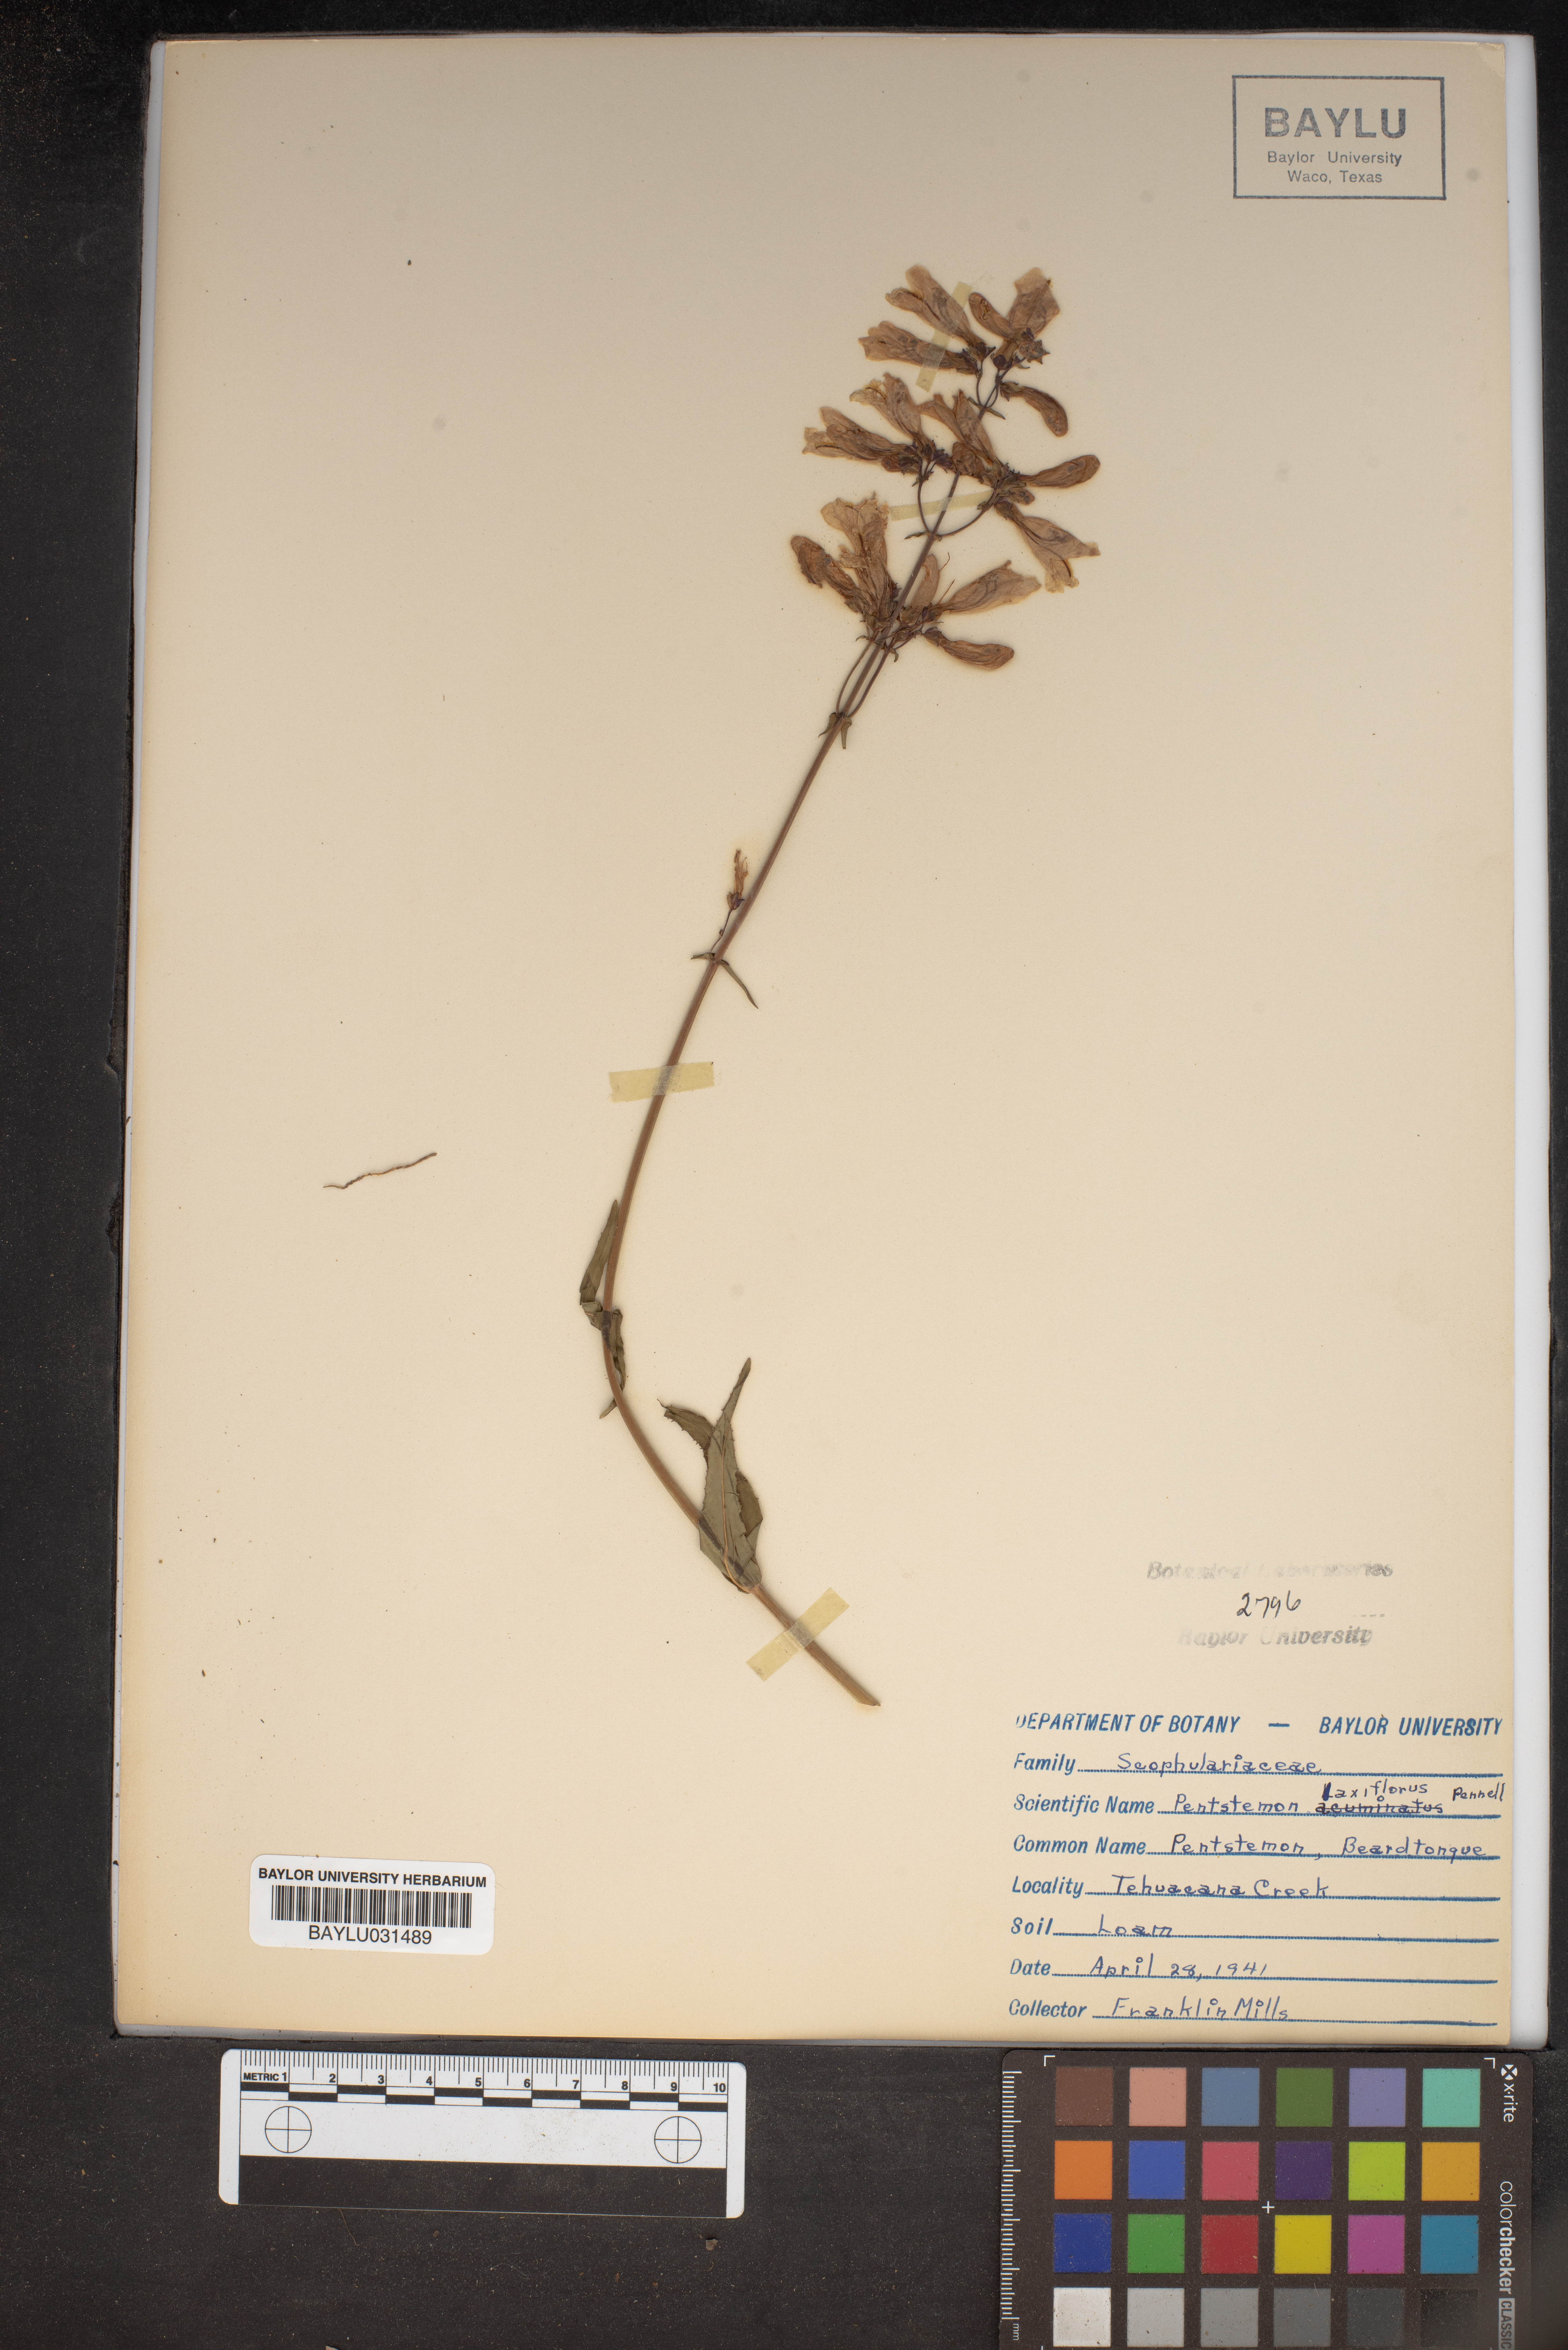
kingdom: Plantae
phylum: Tracheophyta
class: Magnoliopsida
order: Lamiales
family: Plantaginaceae
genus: Penstemon
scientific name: Penstemon laxiflorus
